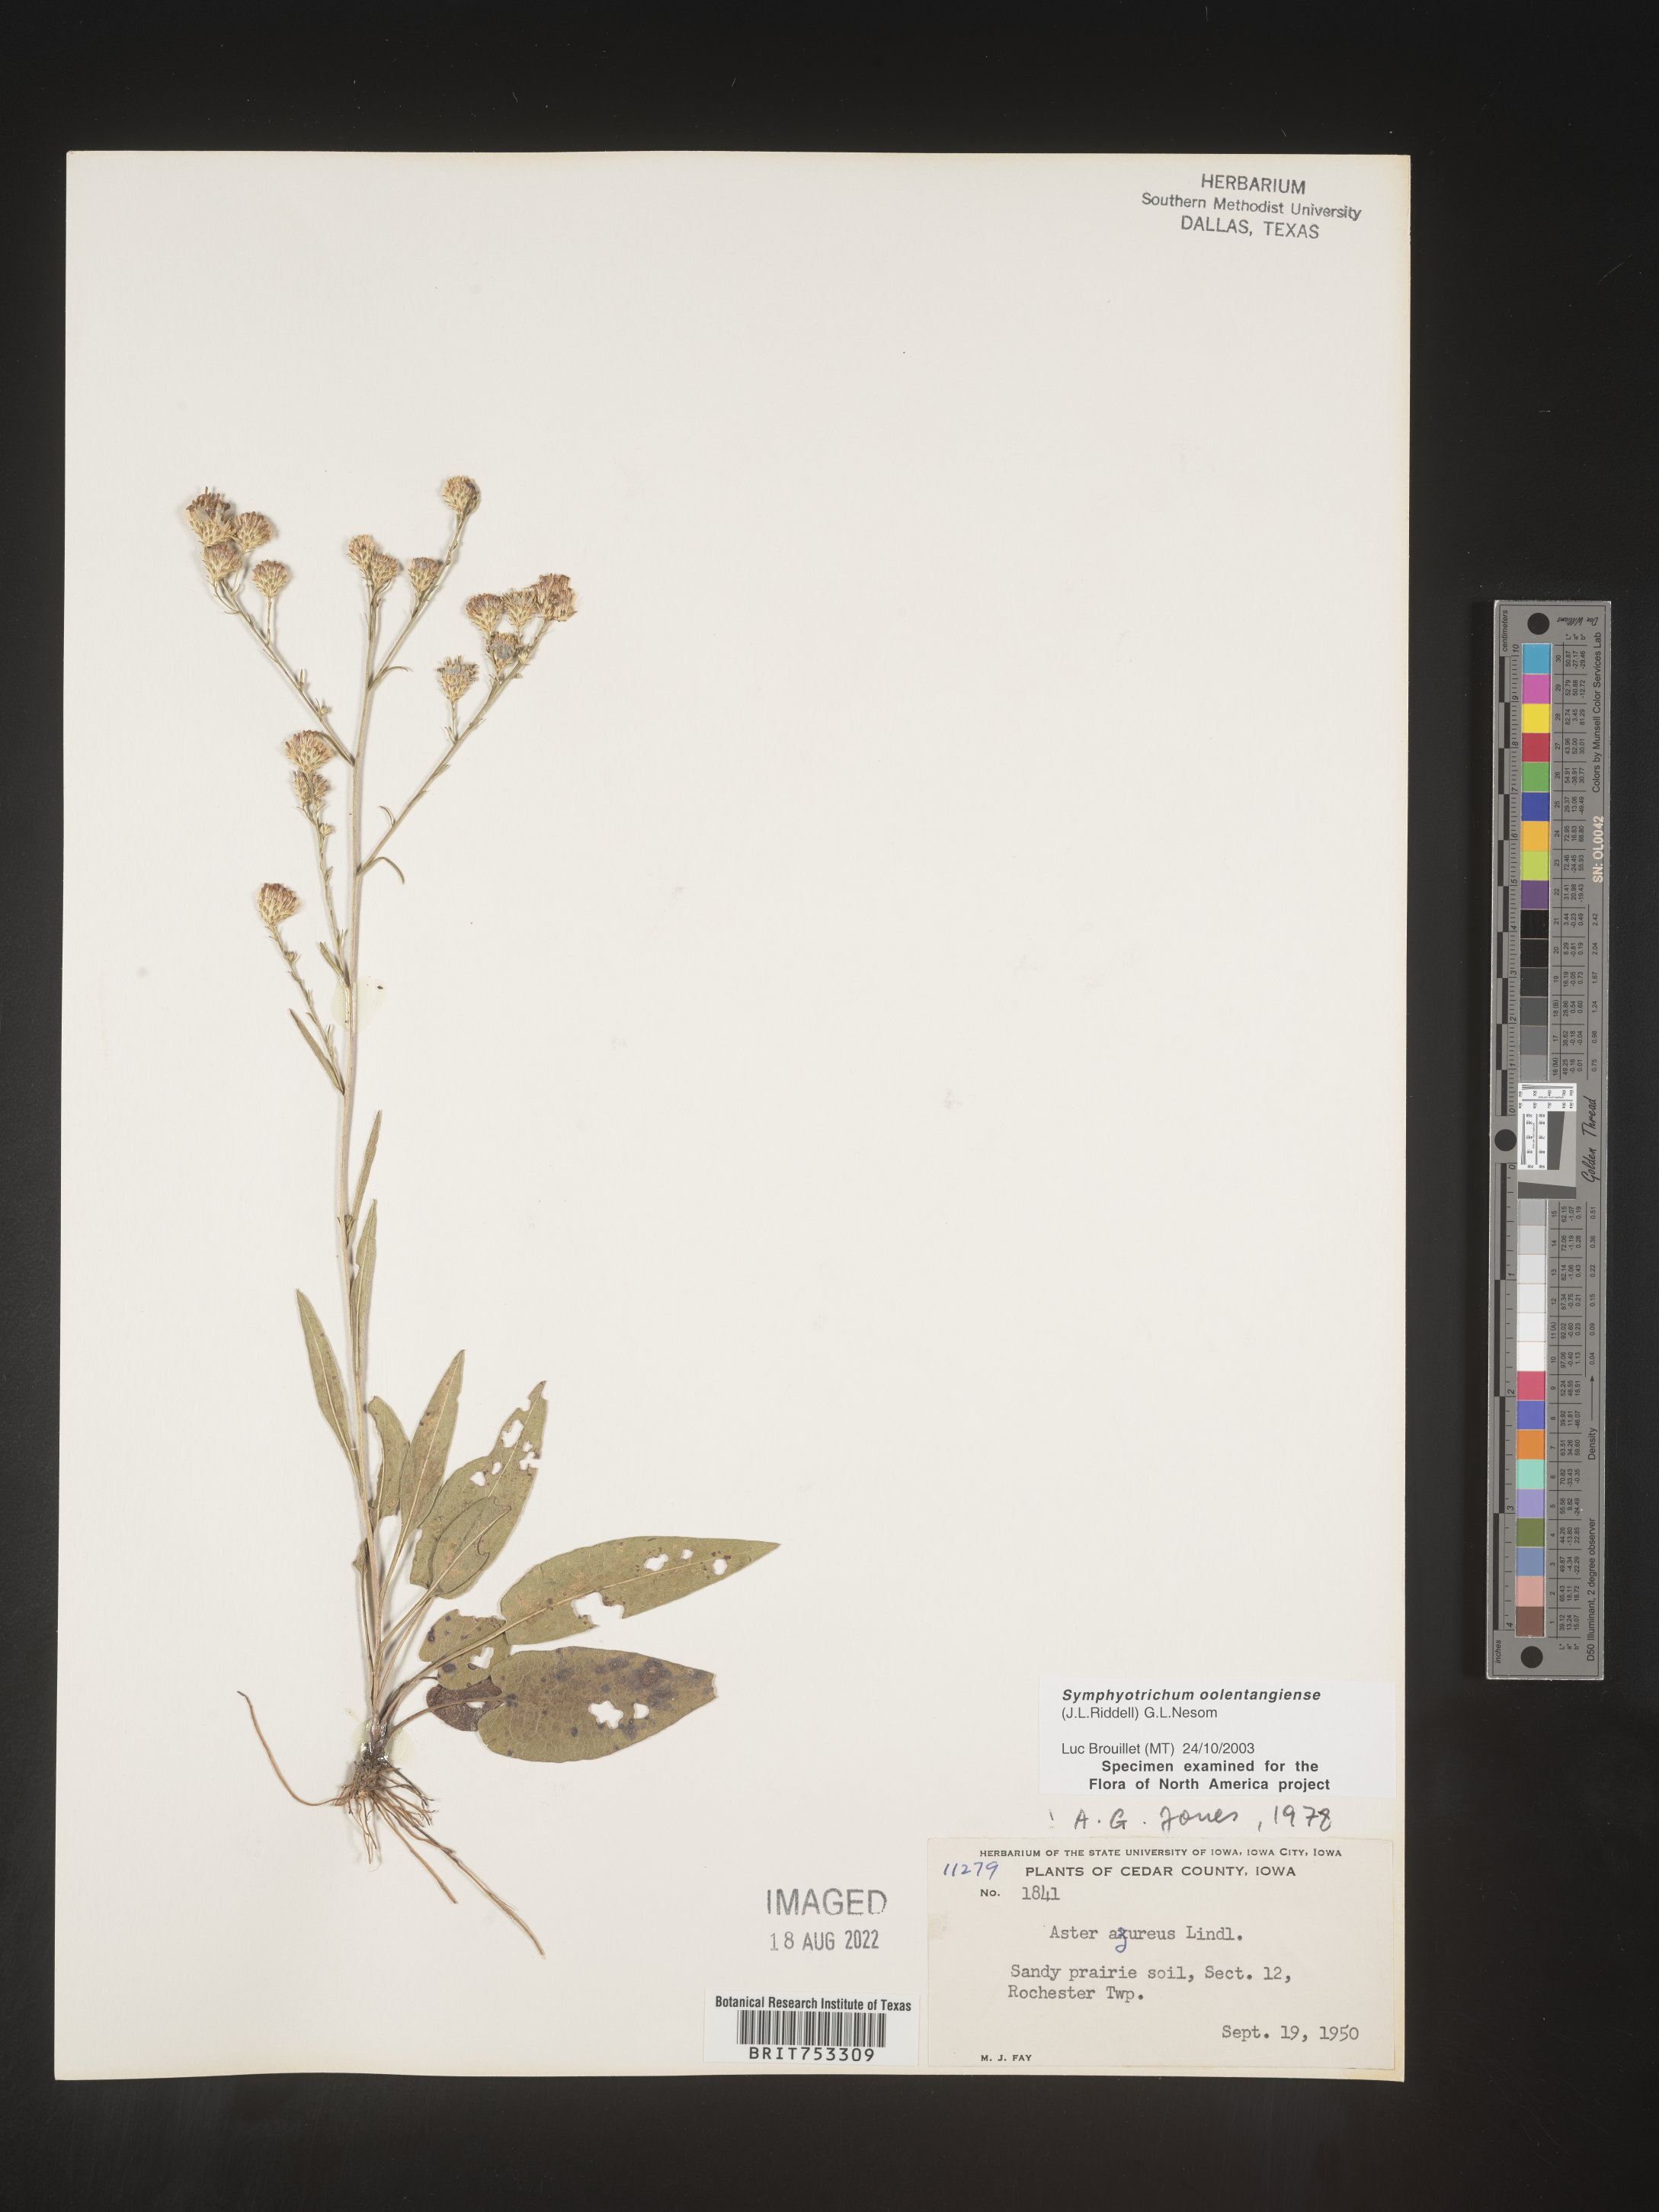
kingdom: Plantae
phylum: Tracheophyta
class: Magnoliopsida
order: Asterales
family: Asteraceae
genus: Symphyotrichum
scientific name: Symphyotrichum oolentangiense
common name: Azure aster
